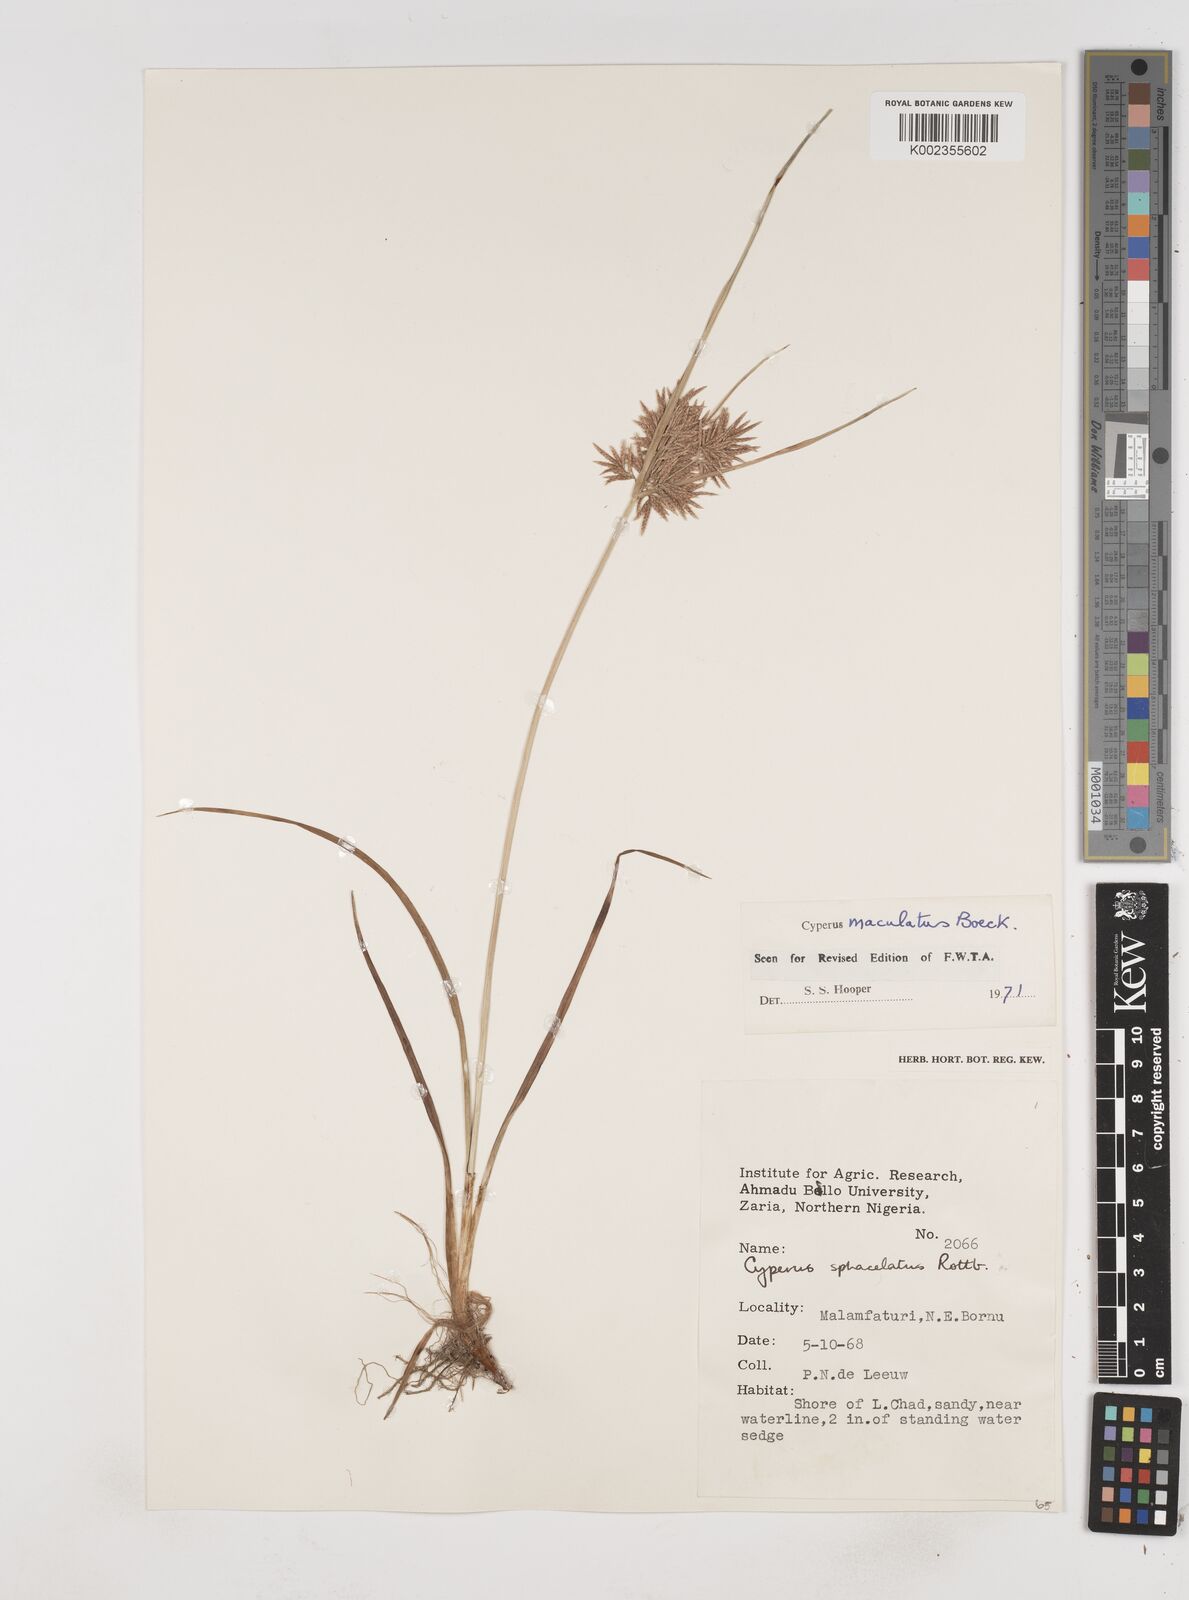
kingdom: Plantae
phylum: Tracheophyta
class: Liliopsida
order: Poales
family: Cyperaceae
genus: Cyperus
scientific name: Cyperus maculatus
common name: Maculated sedge
